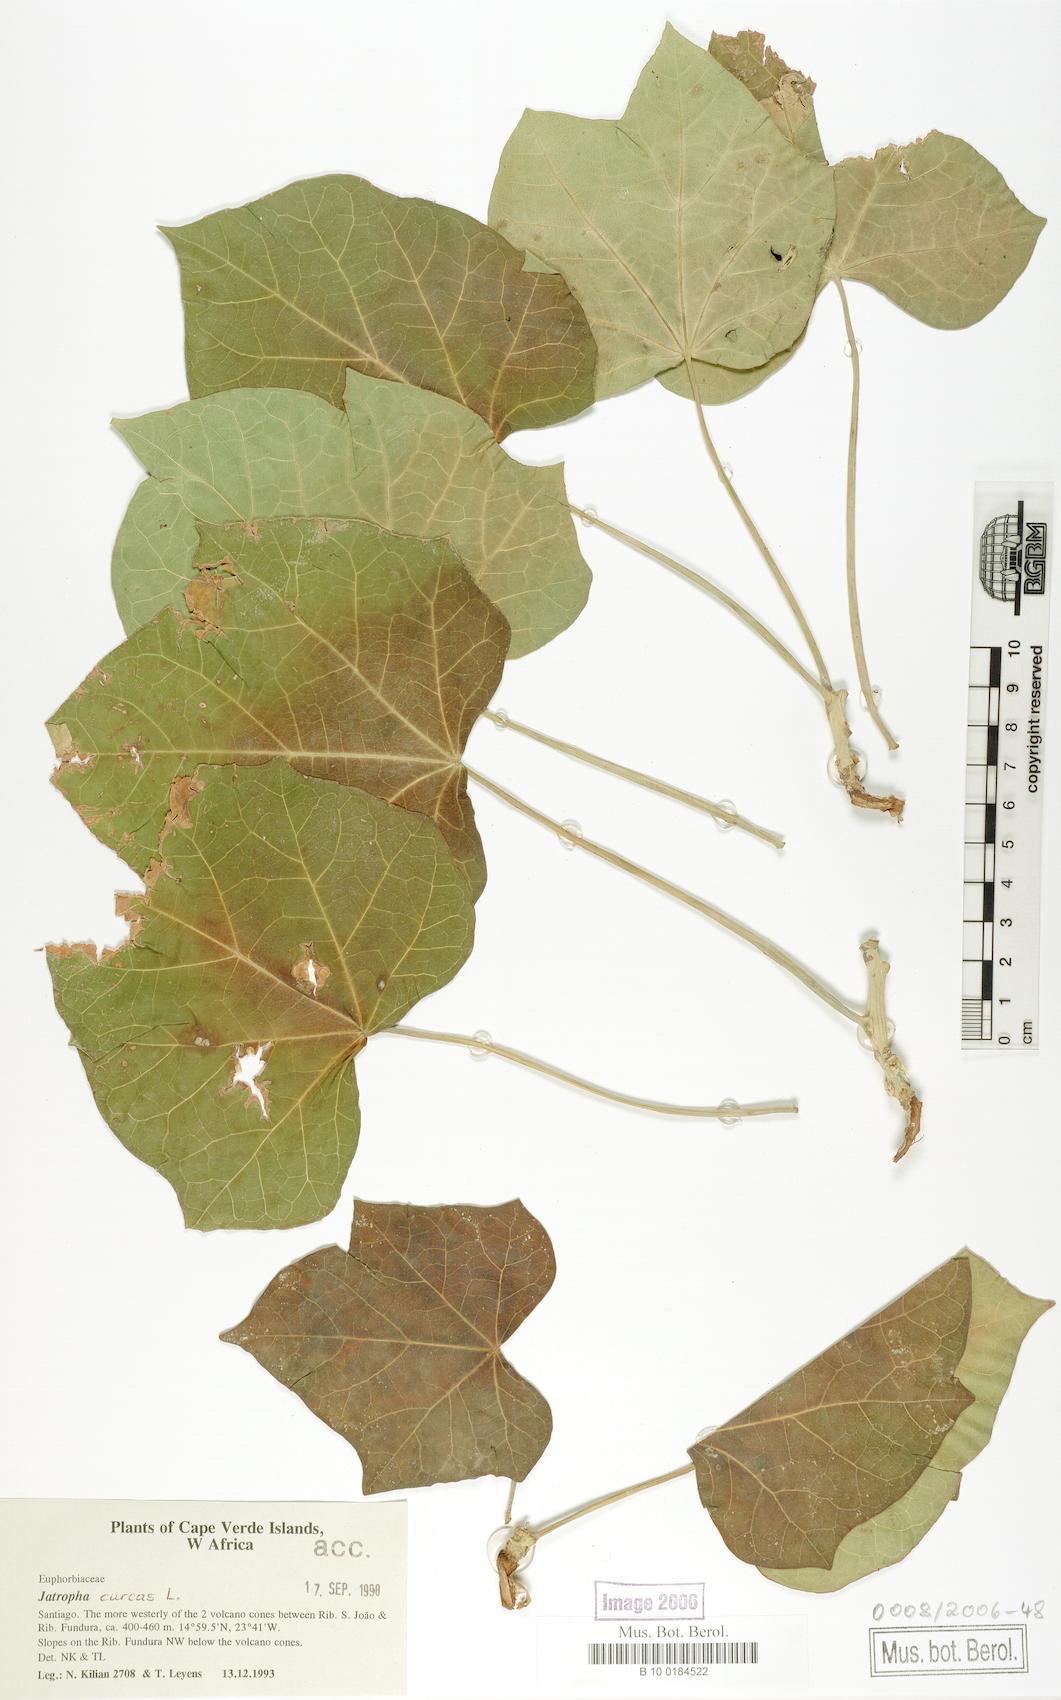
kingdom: Plantae
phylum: Tracheophyta
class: Magnoliopsida
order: Malpighiales
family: Euphorbiaceae
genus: Jatropha
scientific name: Jatropha curcas
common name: Barbados nut
